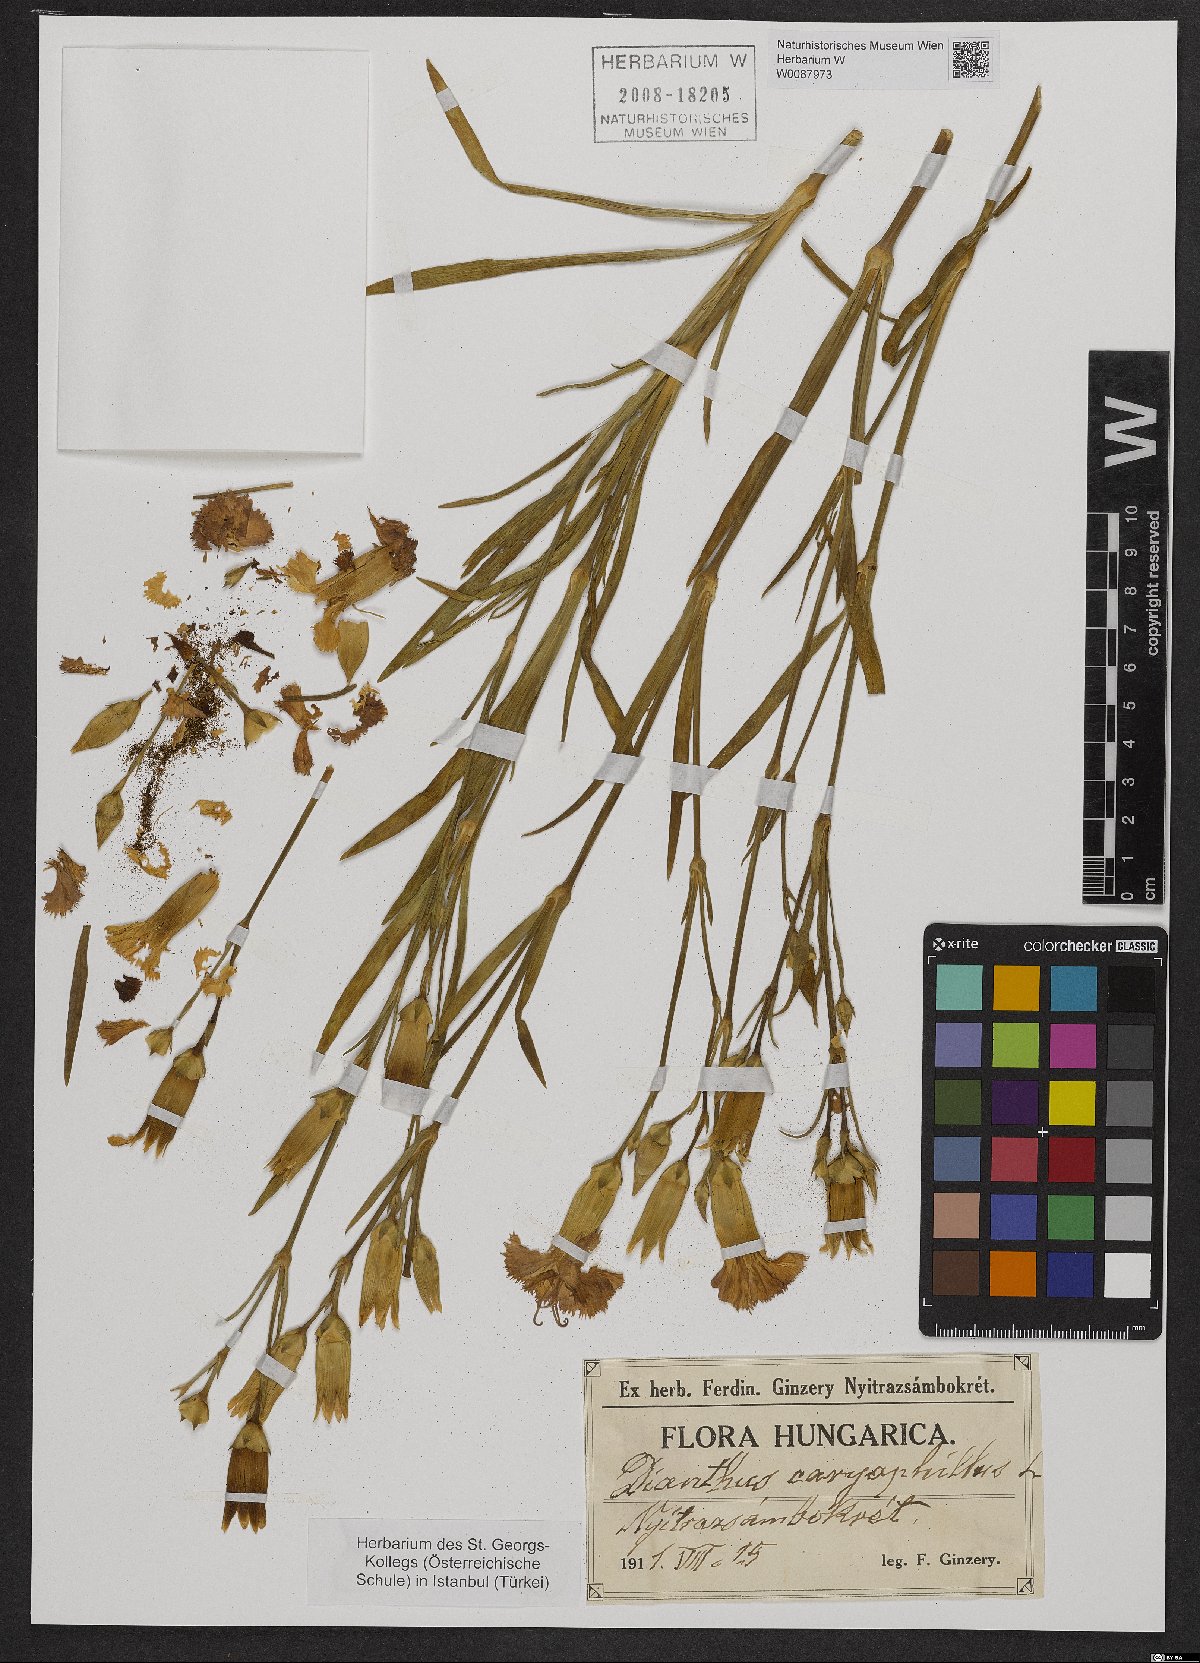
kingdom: Plantae
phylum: Tracheophyta
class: Magnoliopsida
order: Caryophyllales
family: Caryophyllaceae
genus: Dianthus
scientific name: Dianthus barbatus
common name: Sweet-william
